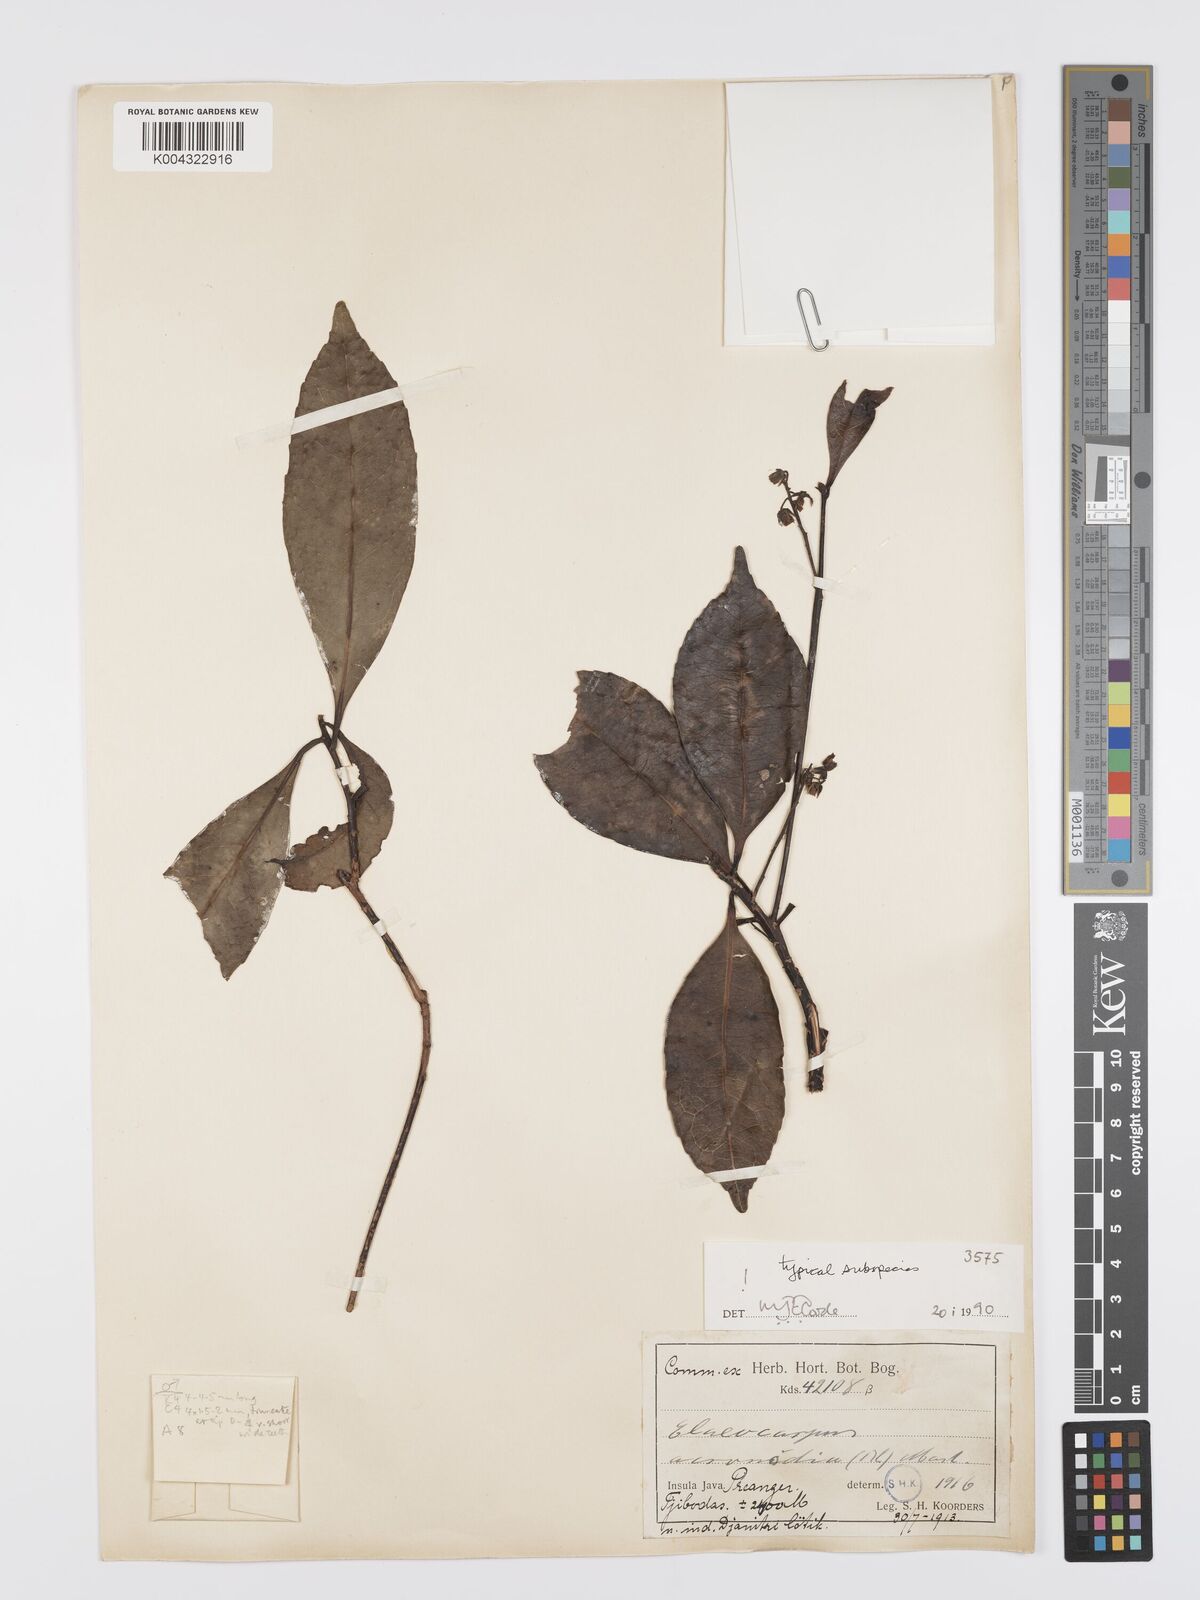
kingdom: Plantae
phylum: Tracheophyta
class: Magnoliopsida
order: Oxalidales
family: Elaeocarpaceae
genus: Elaeocarpus
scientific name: Elaeocarpus acronodia
